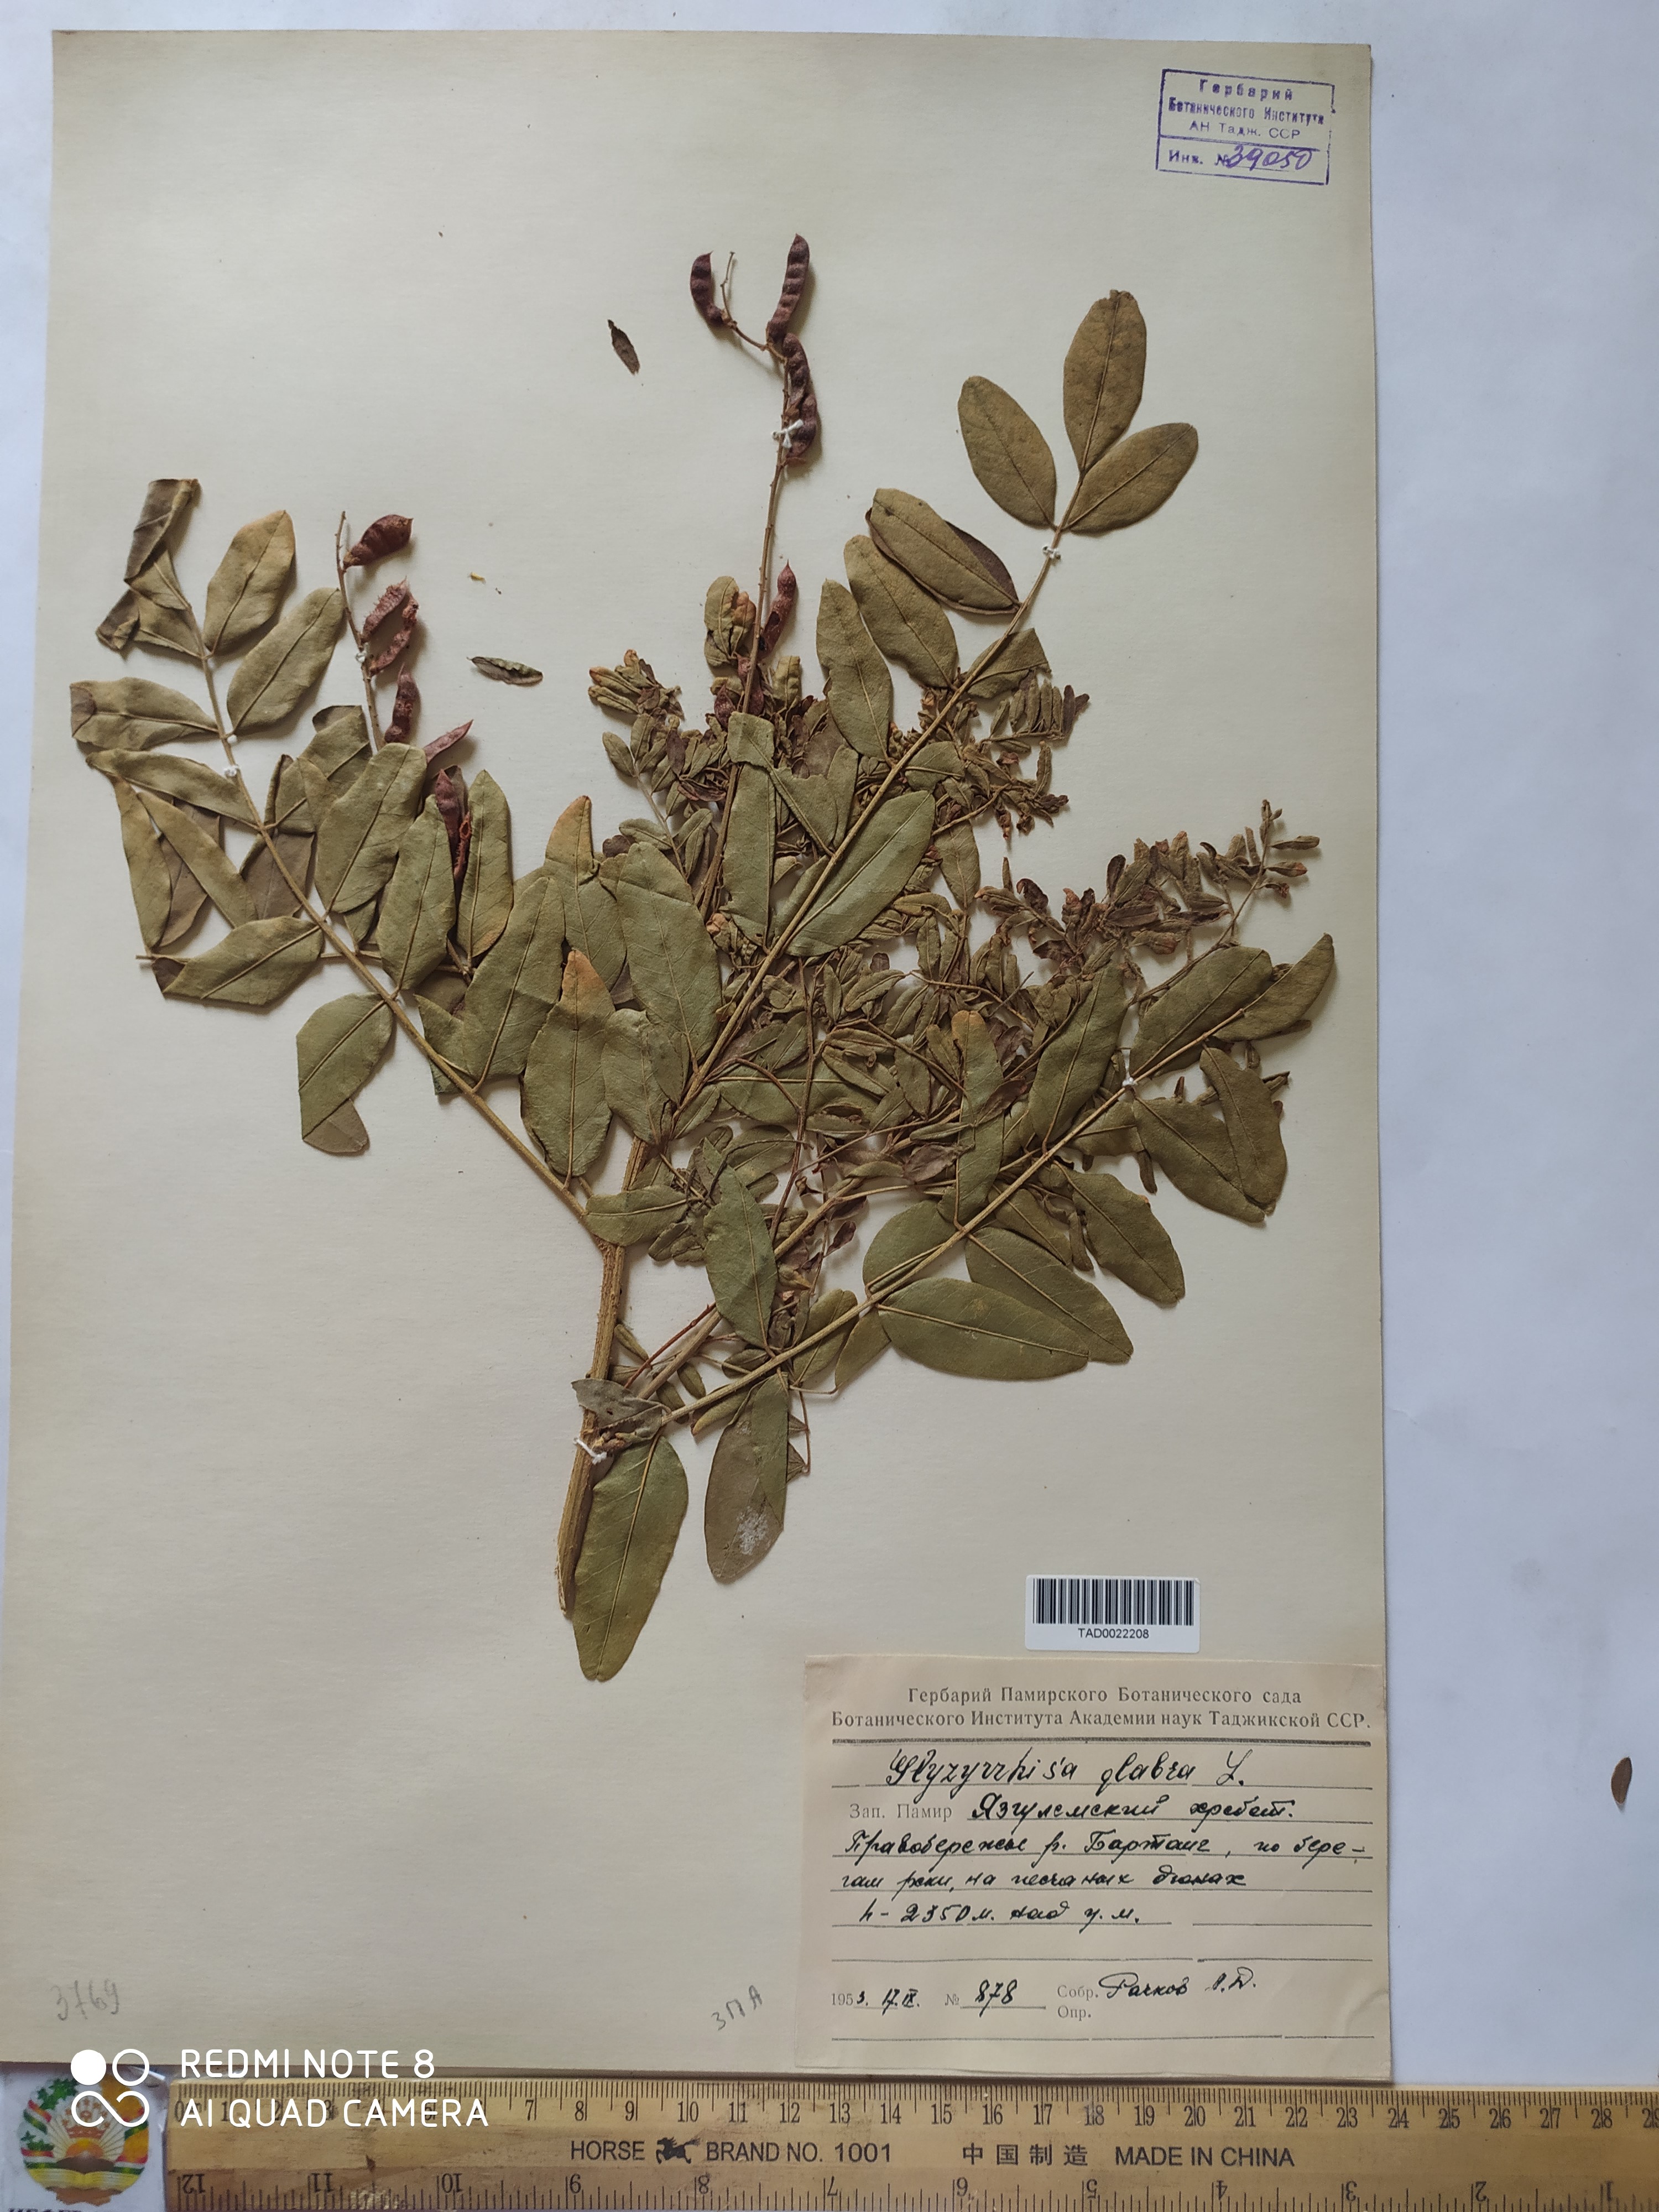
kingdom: Plantae
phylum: Tracheophyta
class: Magnoliopsida
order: Fabales
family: Fabaceae
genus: Glycyrrhiza
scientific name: Glycyrrhiza glabra
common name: Liquorice
